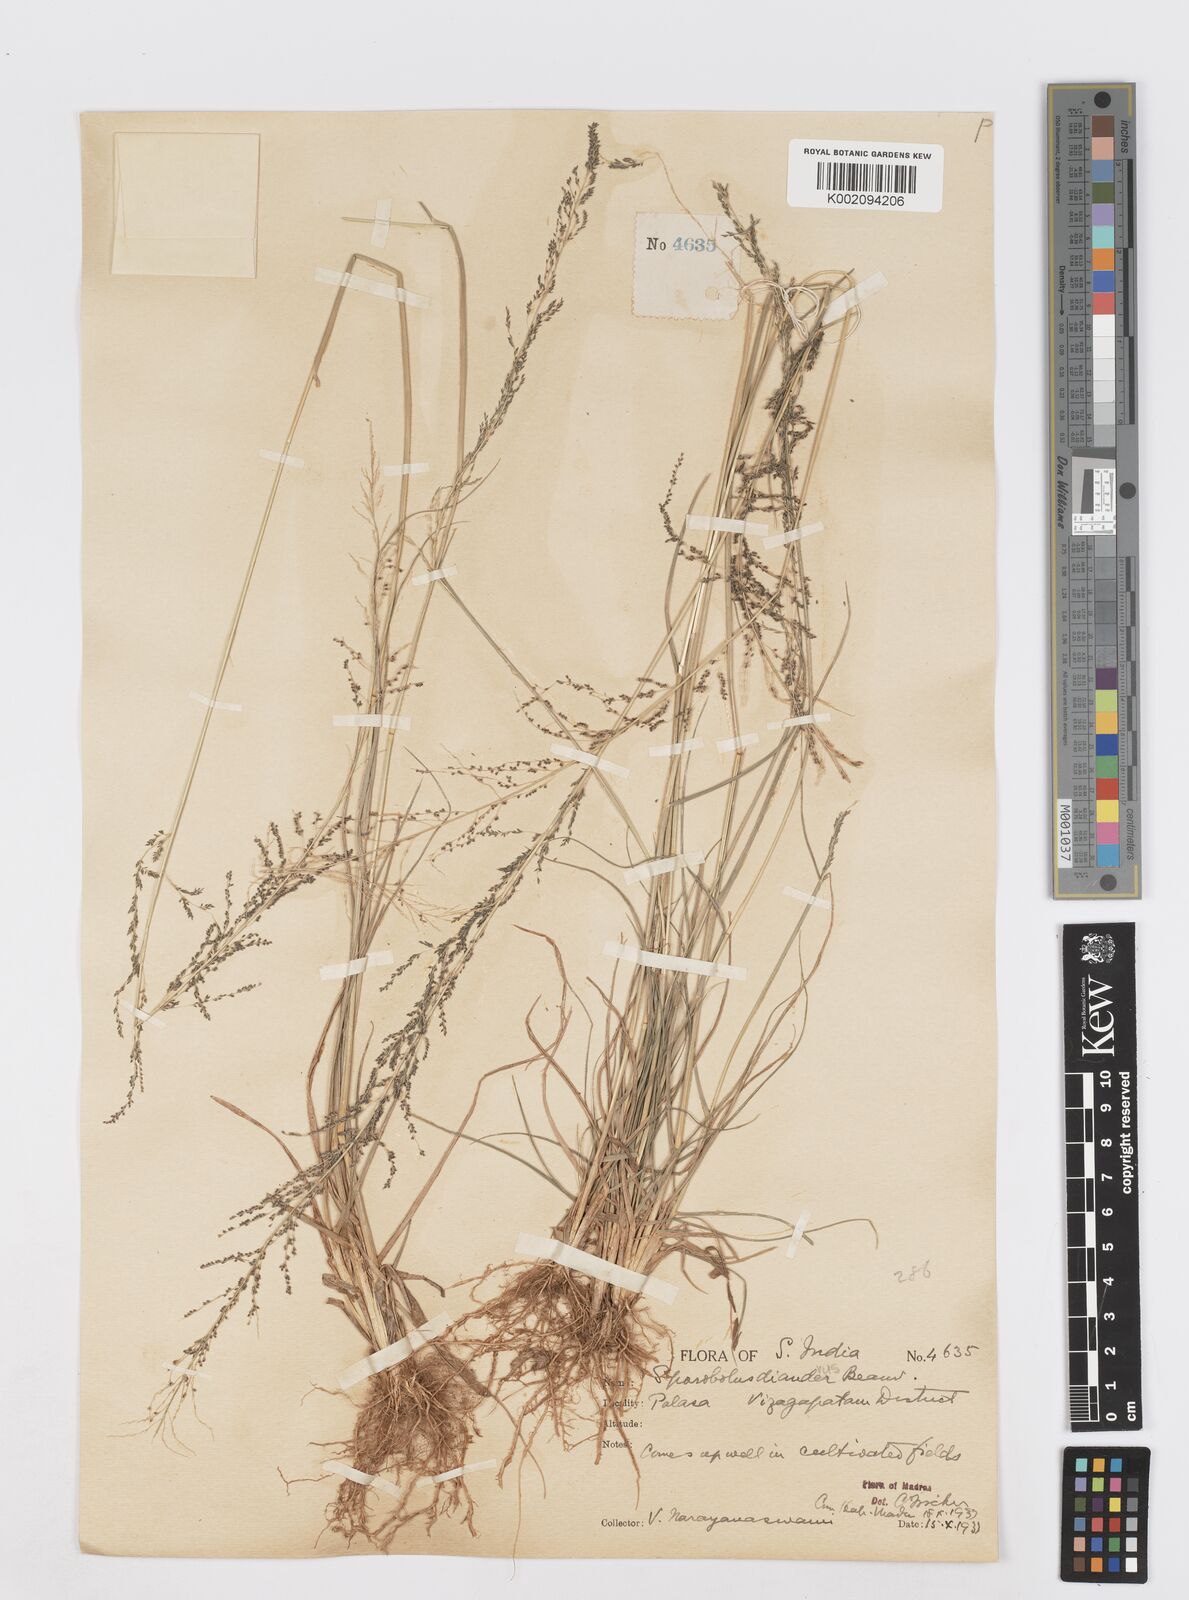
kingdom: Plantae
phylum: Tracheophyta
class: Liliopsida
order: Poales
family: Poaceae
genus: Sporobolus
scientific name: Sporobolus diandrus
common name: Tussock dropseed
